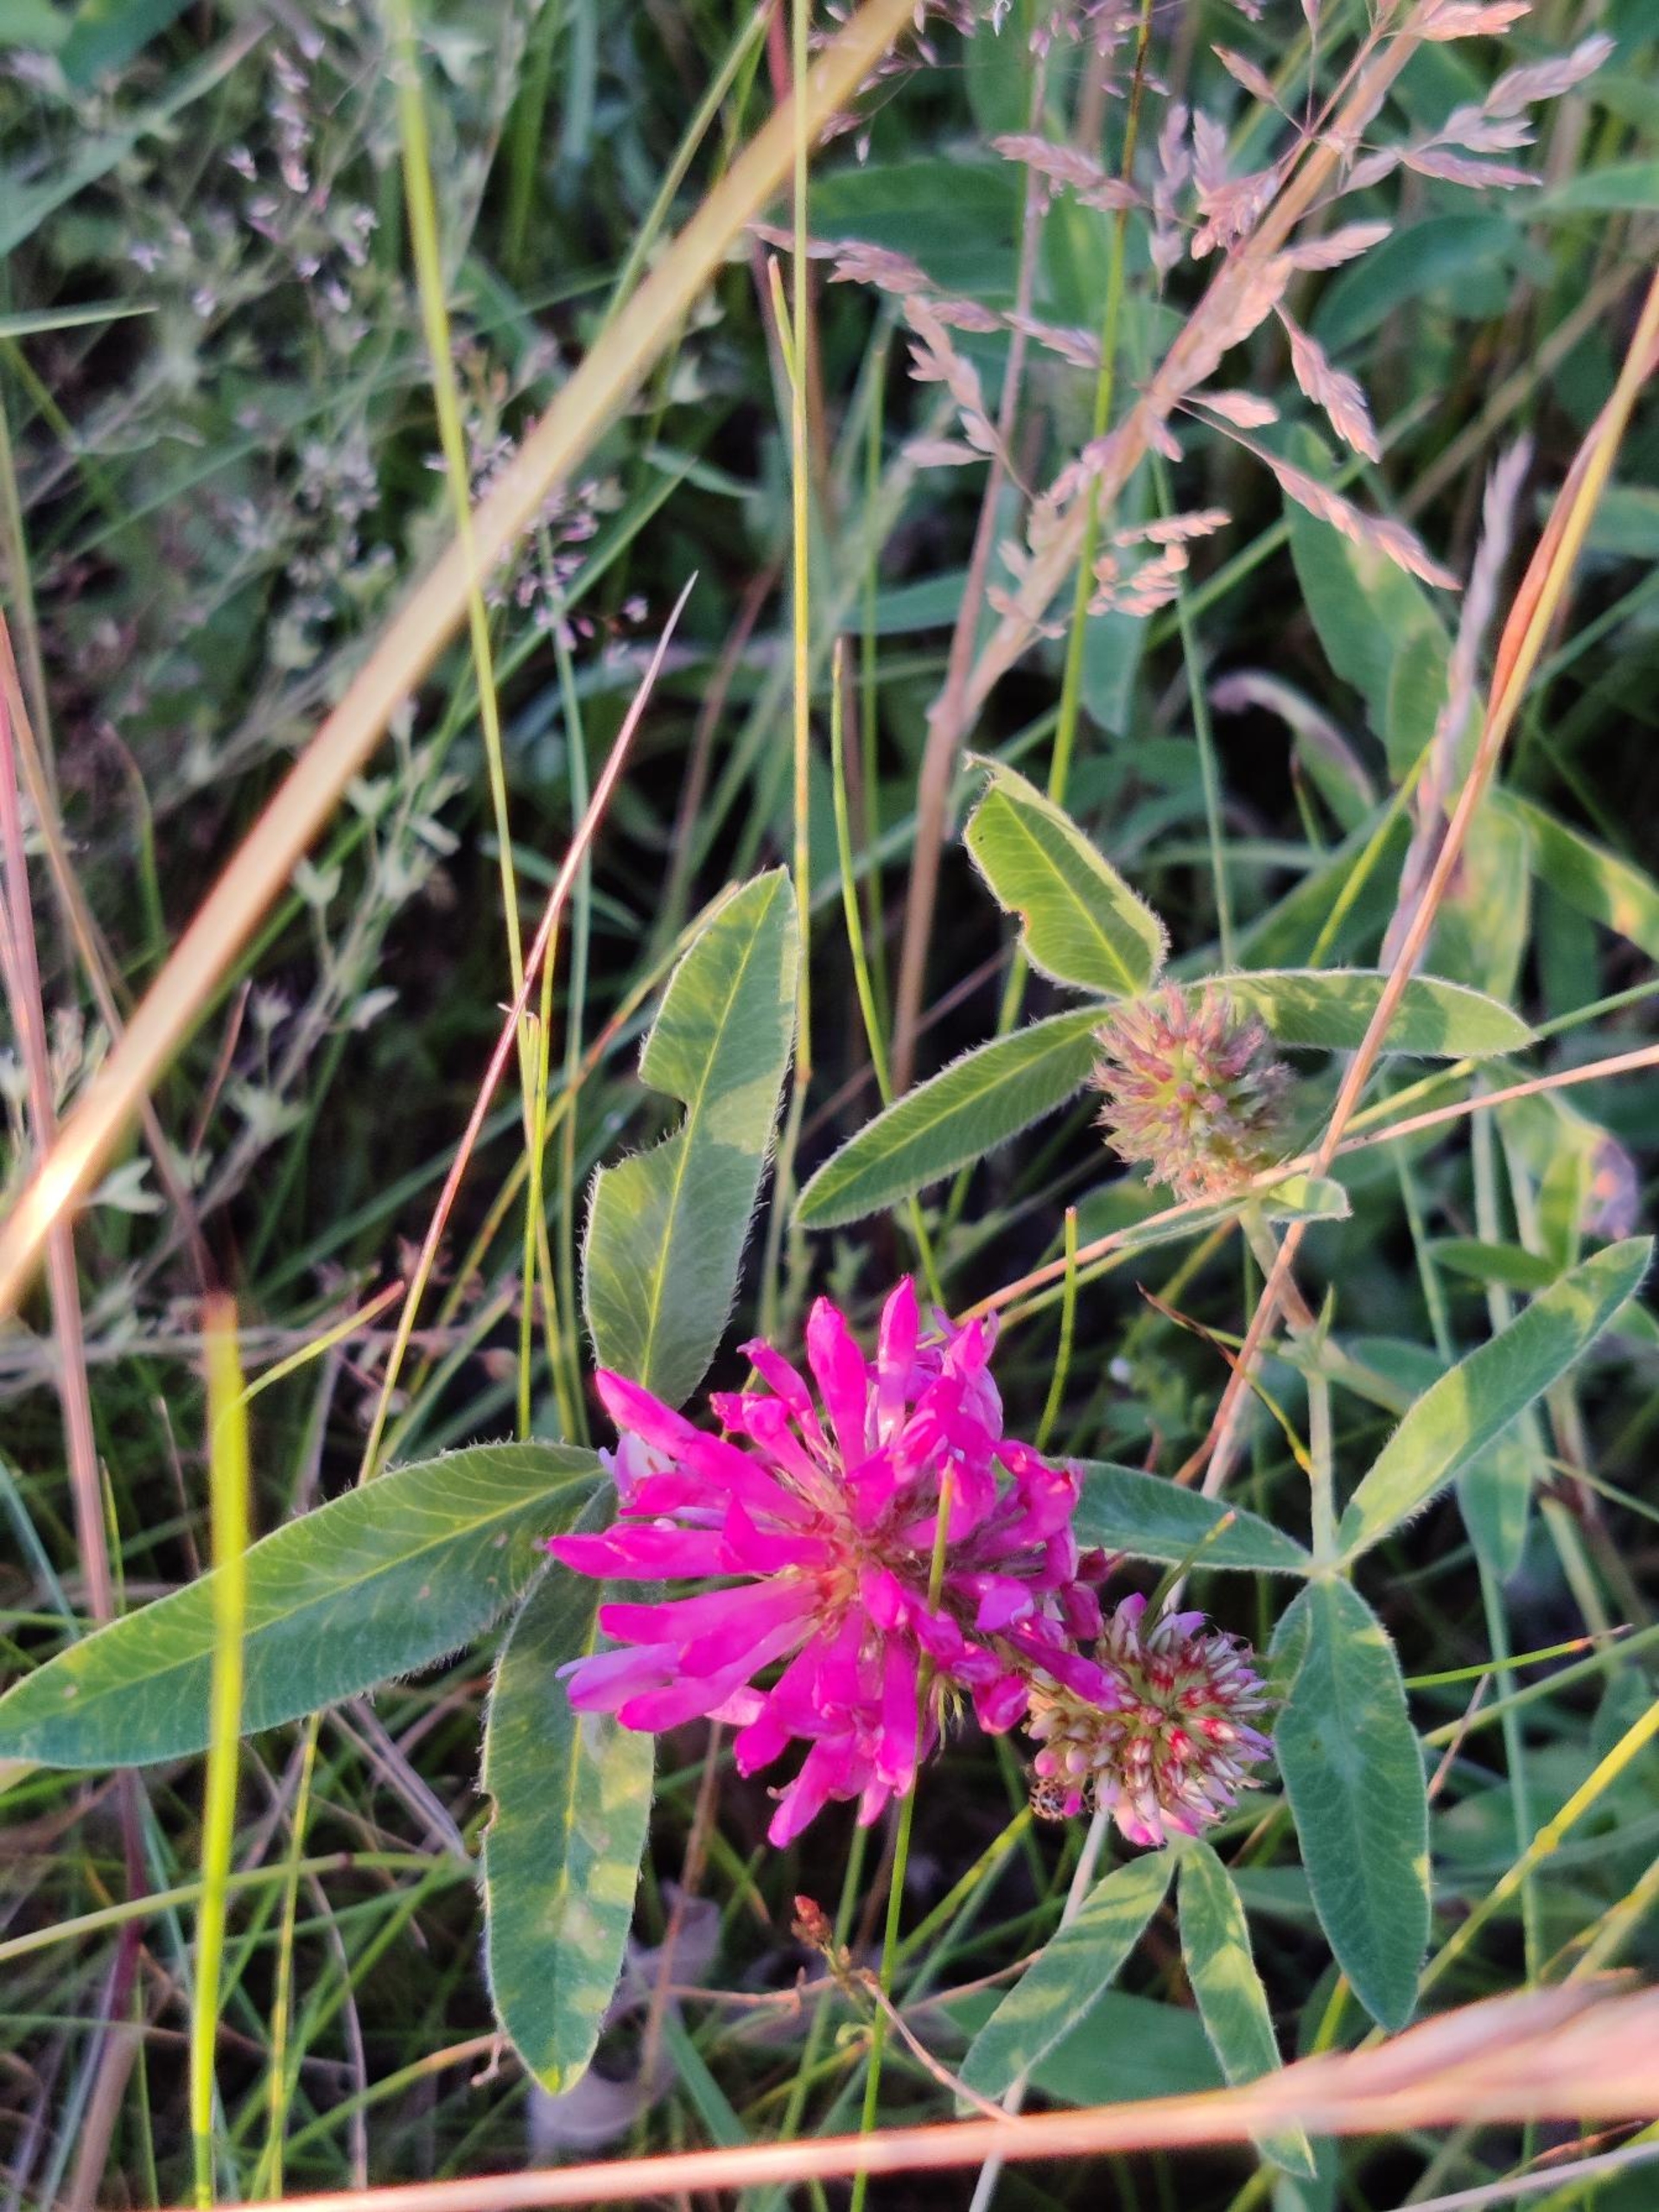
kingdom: Plantae
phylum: Tracheophyta
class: Magnoliopsida
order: Fabales
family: Fabaceae
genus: Trifolium
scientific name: Trifolium alpestre
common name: Skov-kløver
